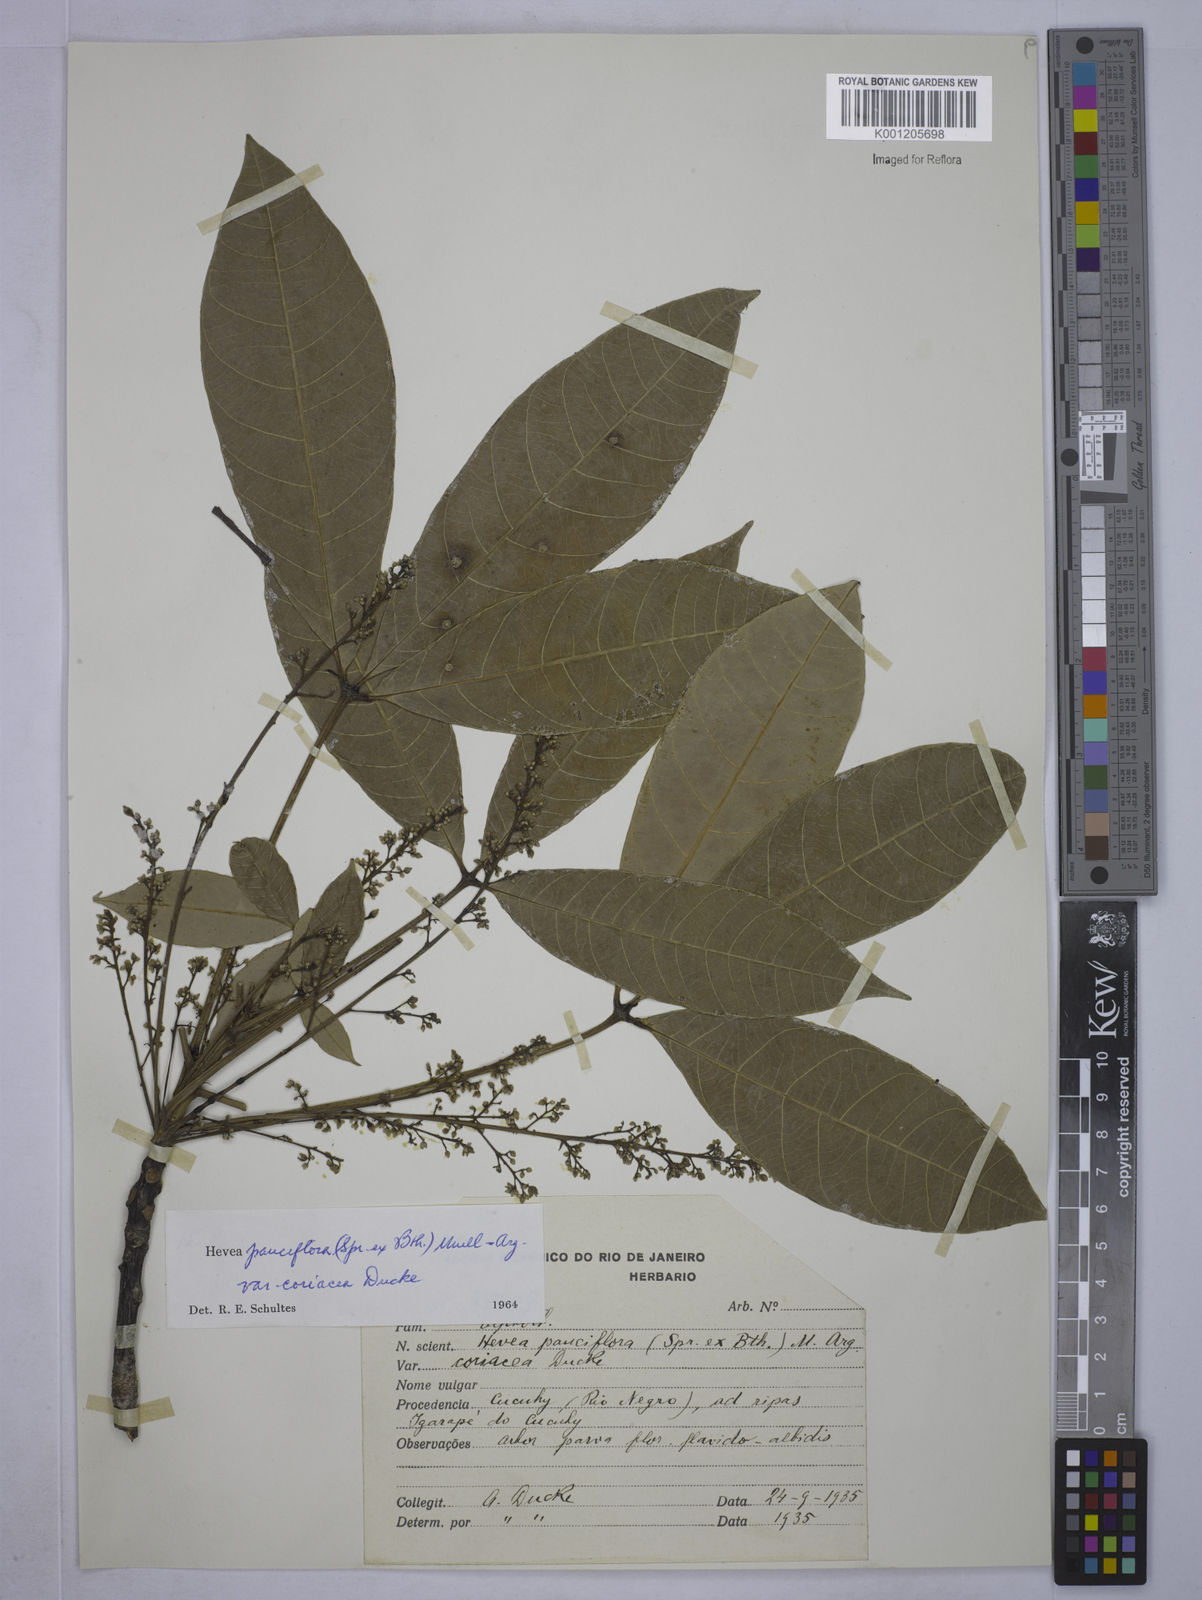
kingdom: Plantae
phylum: Tracheophyta
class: Magnoliopsida
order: Malpighiales
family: Euphorbiaceae
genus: Hevea
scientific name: Hevea pauciflora
